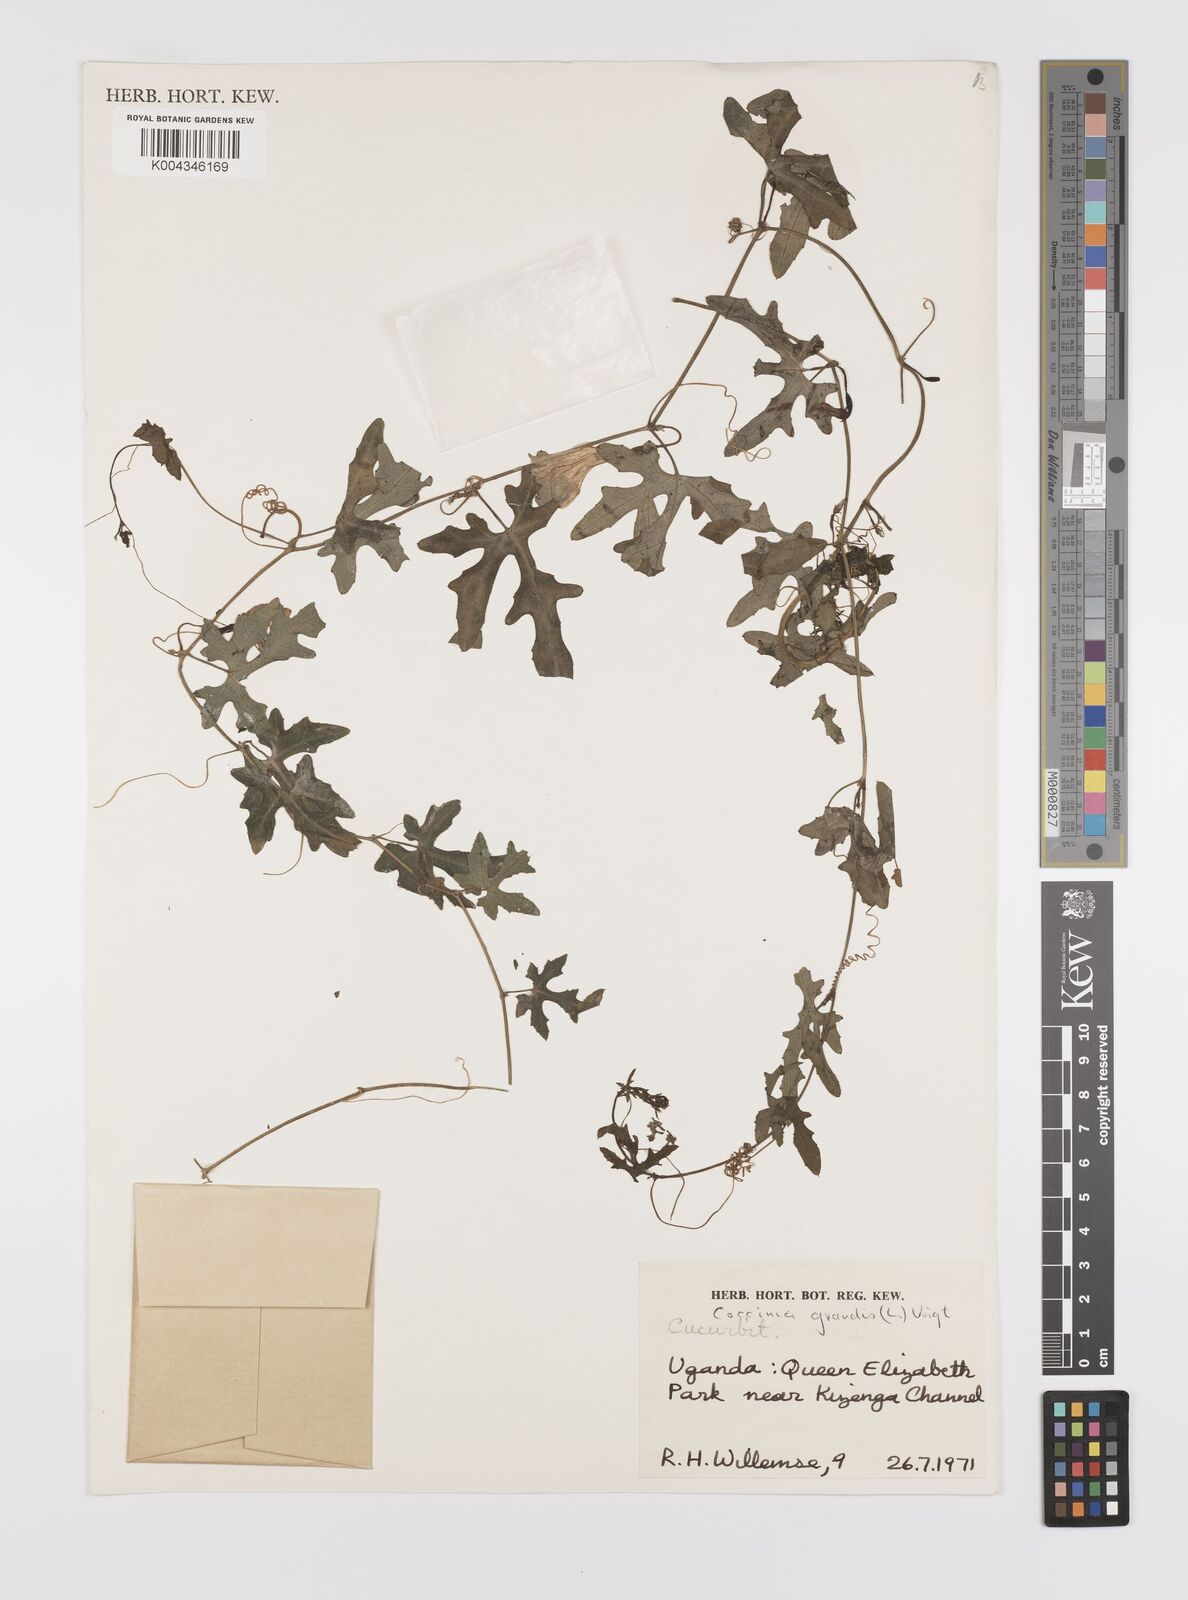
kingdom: Plantae
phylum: Tracheophyta
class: Magnoliopsida
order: Cucurbitales
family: Cucurbitaceae
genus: Coccinia
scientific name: Coccinia grandis
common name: Ivy gourd
